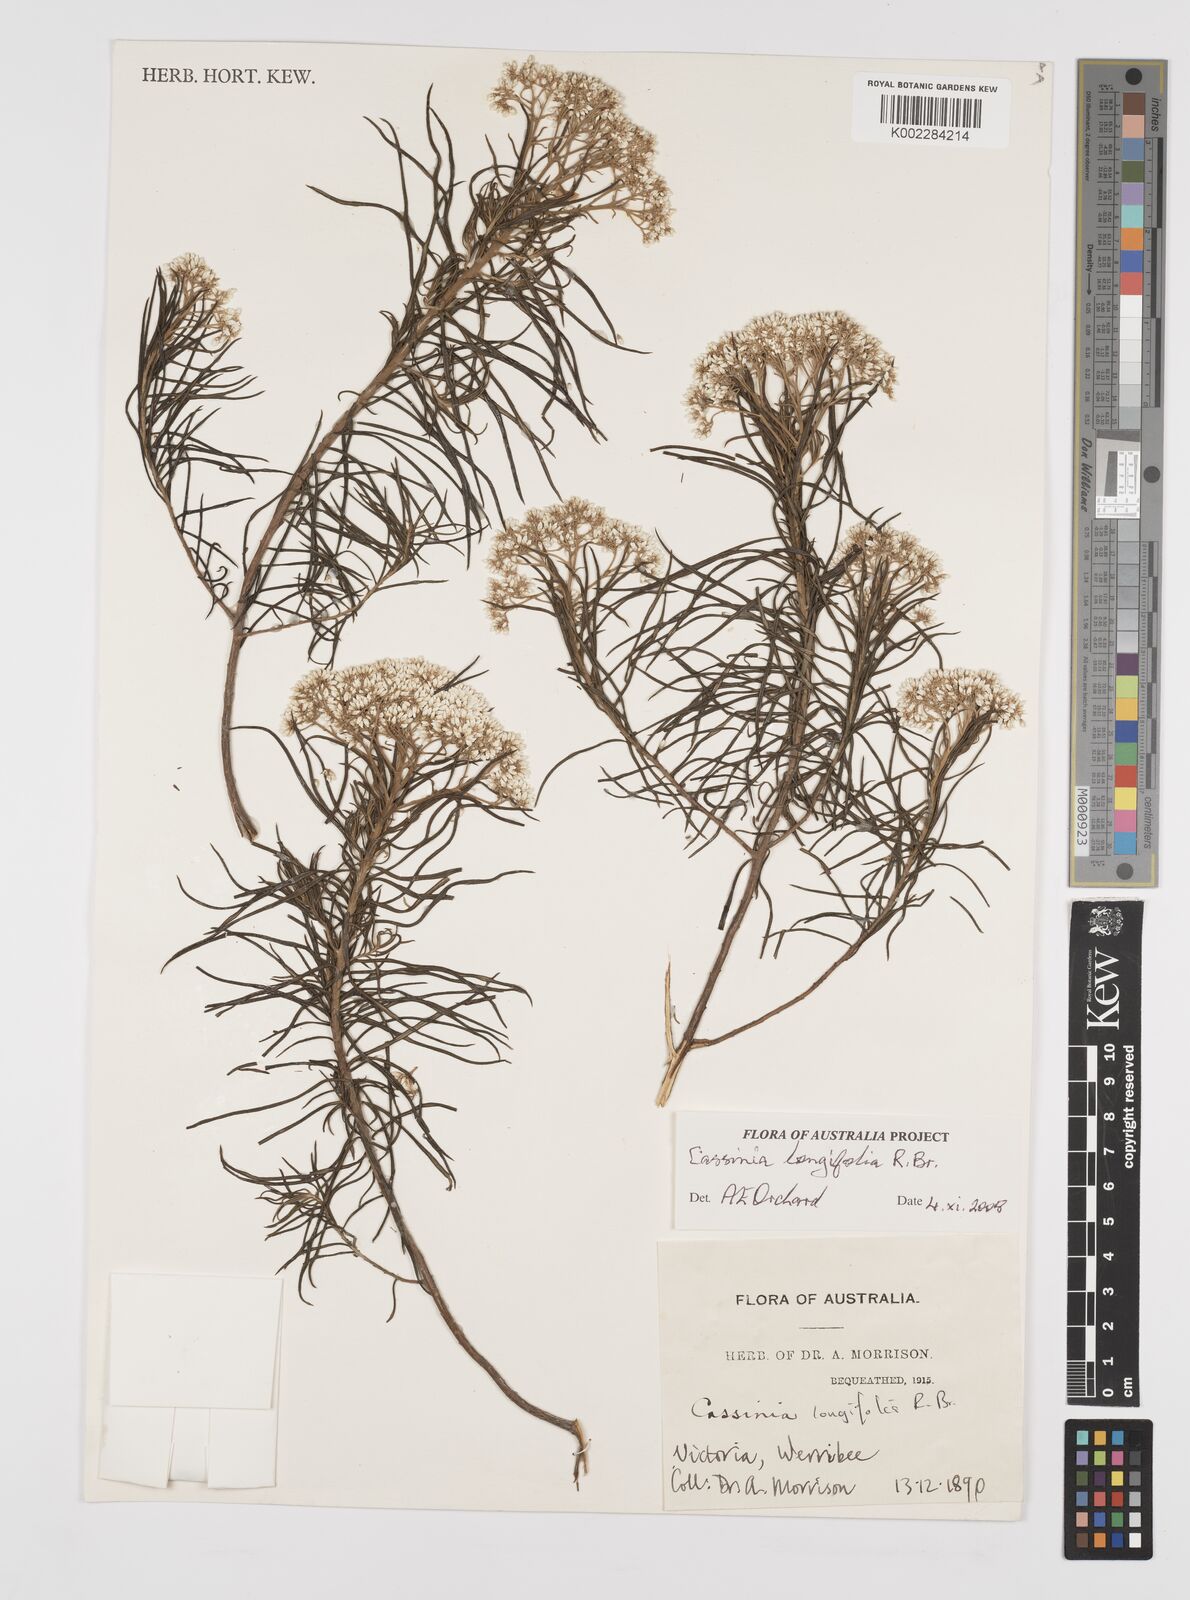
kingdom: Plantae
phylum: Tracheophyta
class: Magnoliopsida
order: Asterales
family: Asteraceae
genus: Cassinia
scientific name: Cassinia longifolia
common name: Longleaf-dogwood
